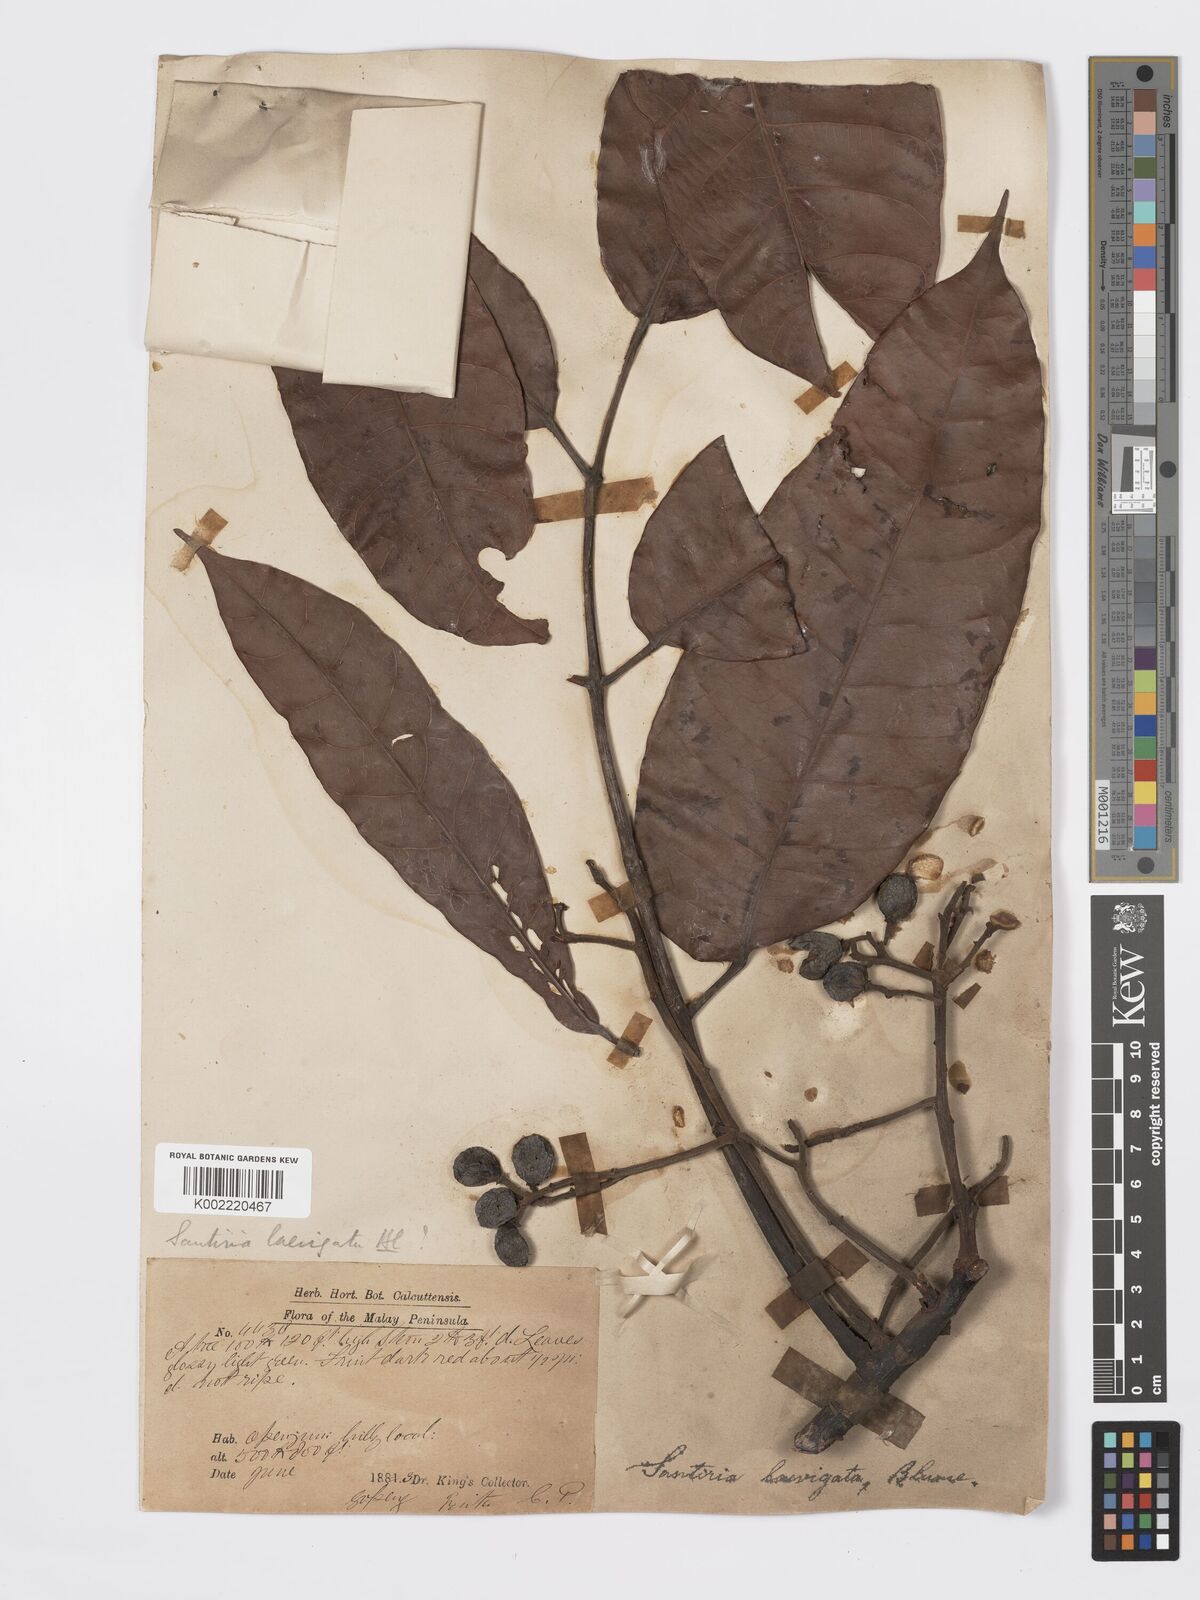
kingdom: Plantae
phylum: Tracheophyta
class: Magnoliopsida
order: Sapindales
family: Burseraceae
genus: Santiria
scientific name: Santiria laevigata
